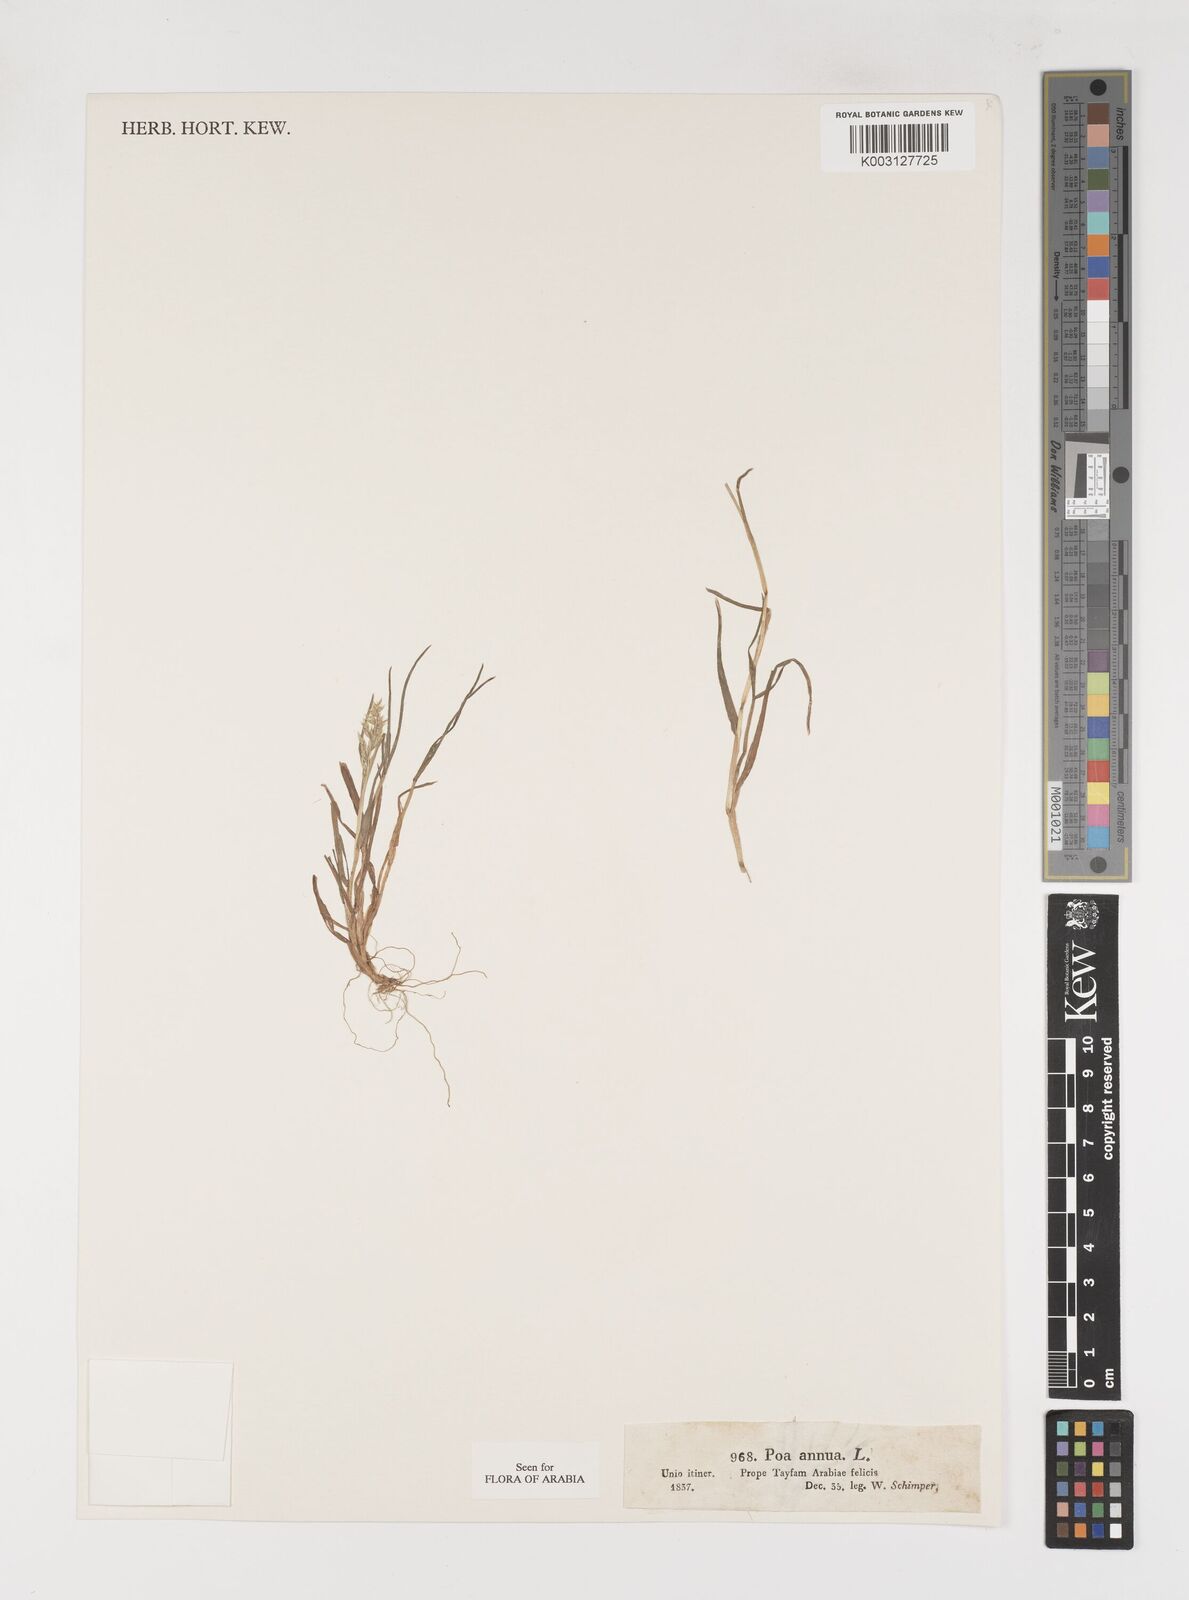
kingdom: Plantae
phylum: Tracheophyta
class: Liliopsida
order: Poales
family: Poaceae
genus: Poa
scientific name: Poa annua
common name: Annual bluegrass
